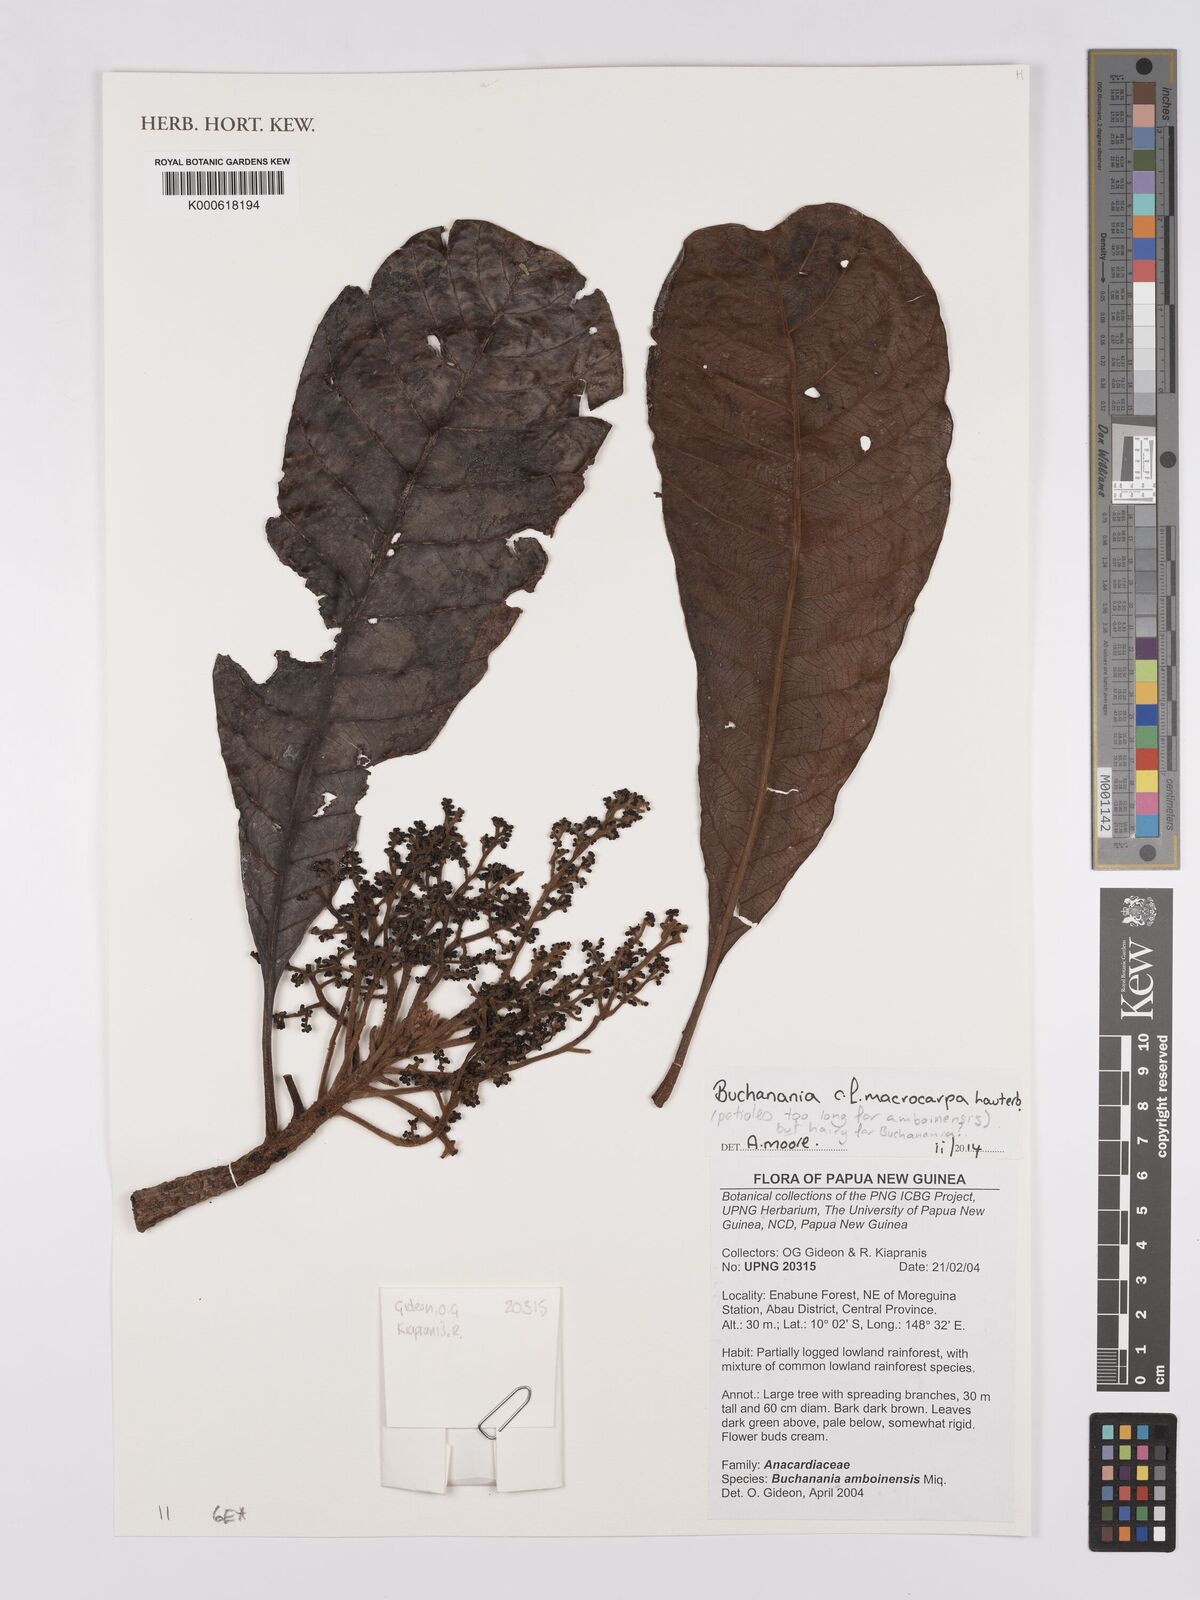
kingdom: Plantae
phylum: Tracheophyta
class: Magnoliopsida
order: Sapindales
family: Anacardiaceae
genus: Buchanania
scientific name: Buchanania macrocarpa
